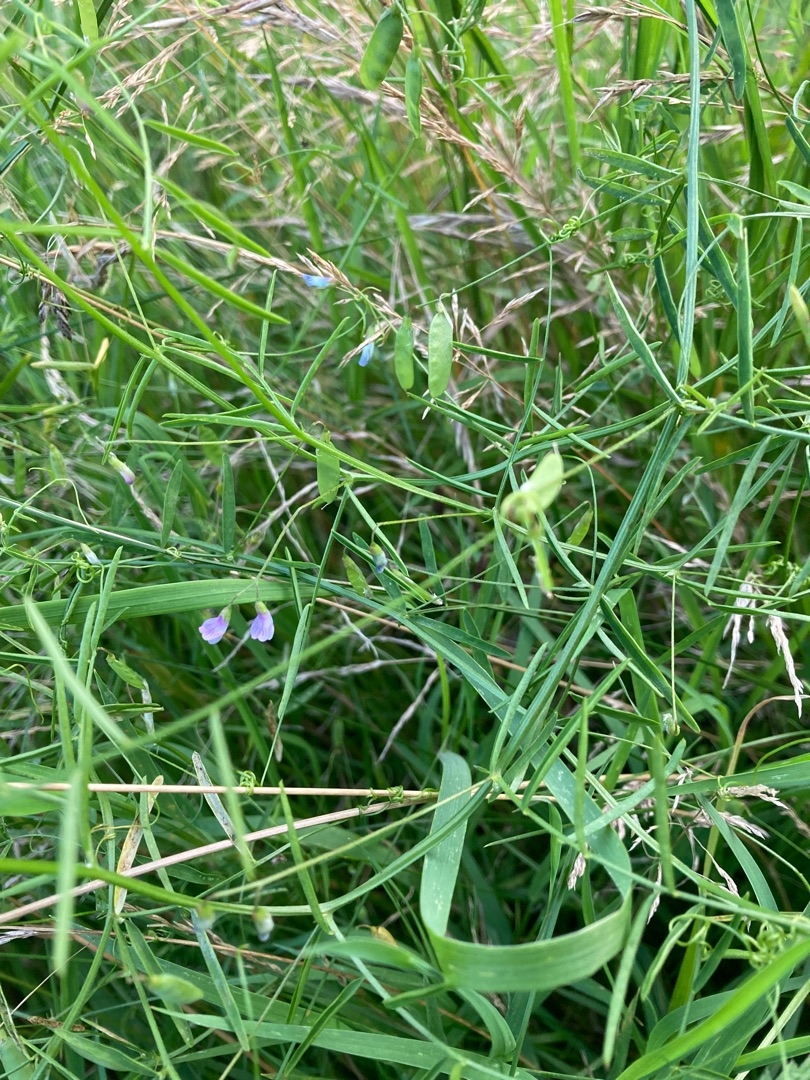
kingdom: Plantae
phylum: Tracheophyta
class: Magnoliopsida
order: Fabales
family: Fabaceae
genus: Vicia
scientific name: Vicia tetrasperma
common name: Tadder-vikke
